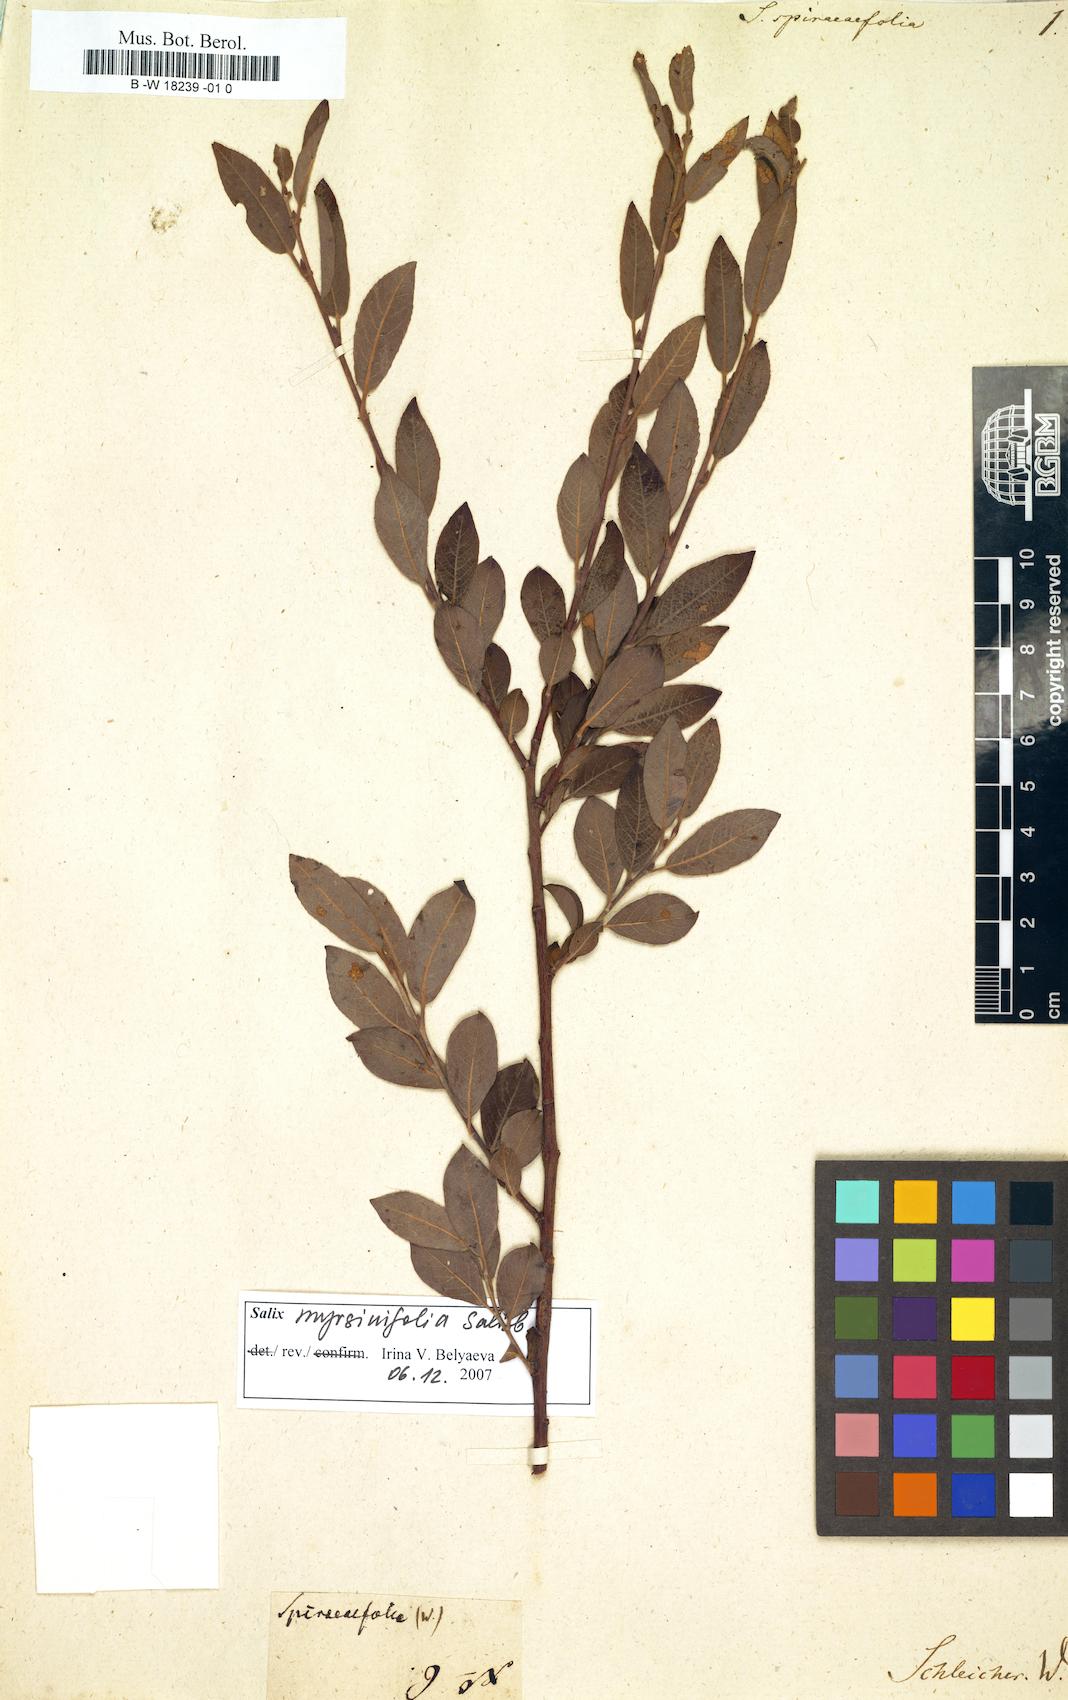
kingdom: Plantae
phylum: Tracheophyta
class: Magnoliopsida
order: Malpighiales
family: Salicaceae
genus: Salix
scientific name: Salix aurita
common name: Eared willow
